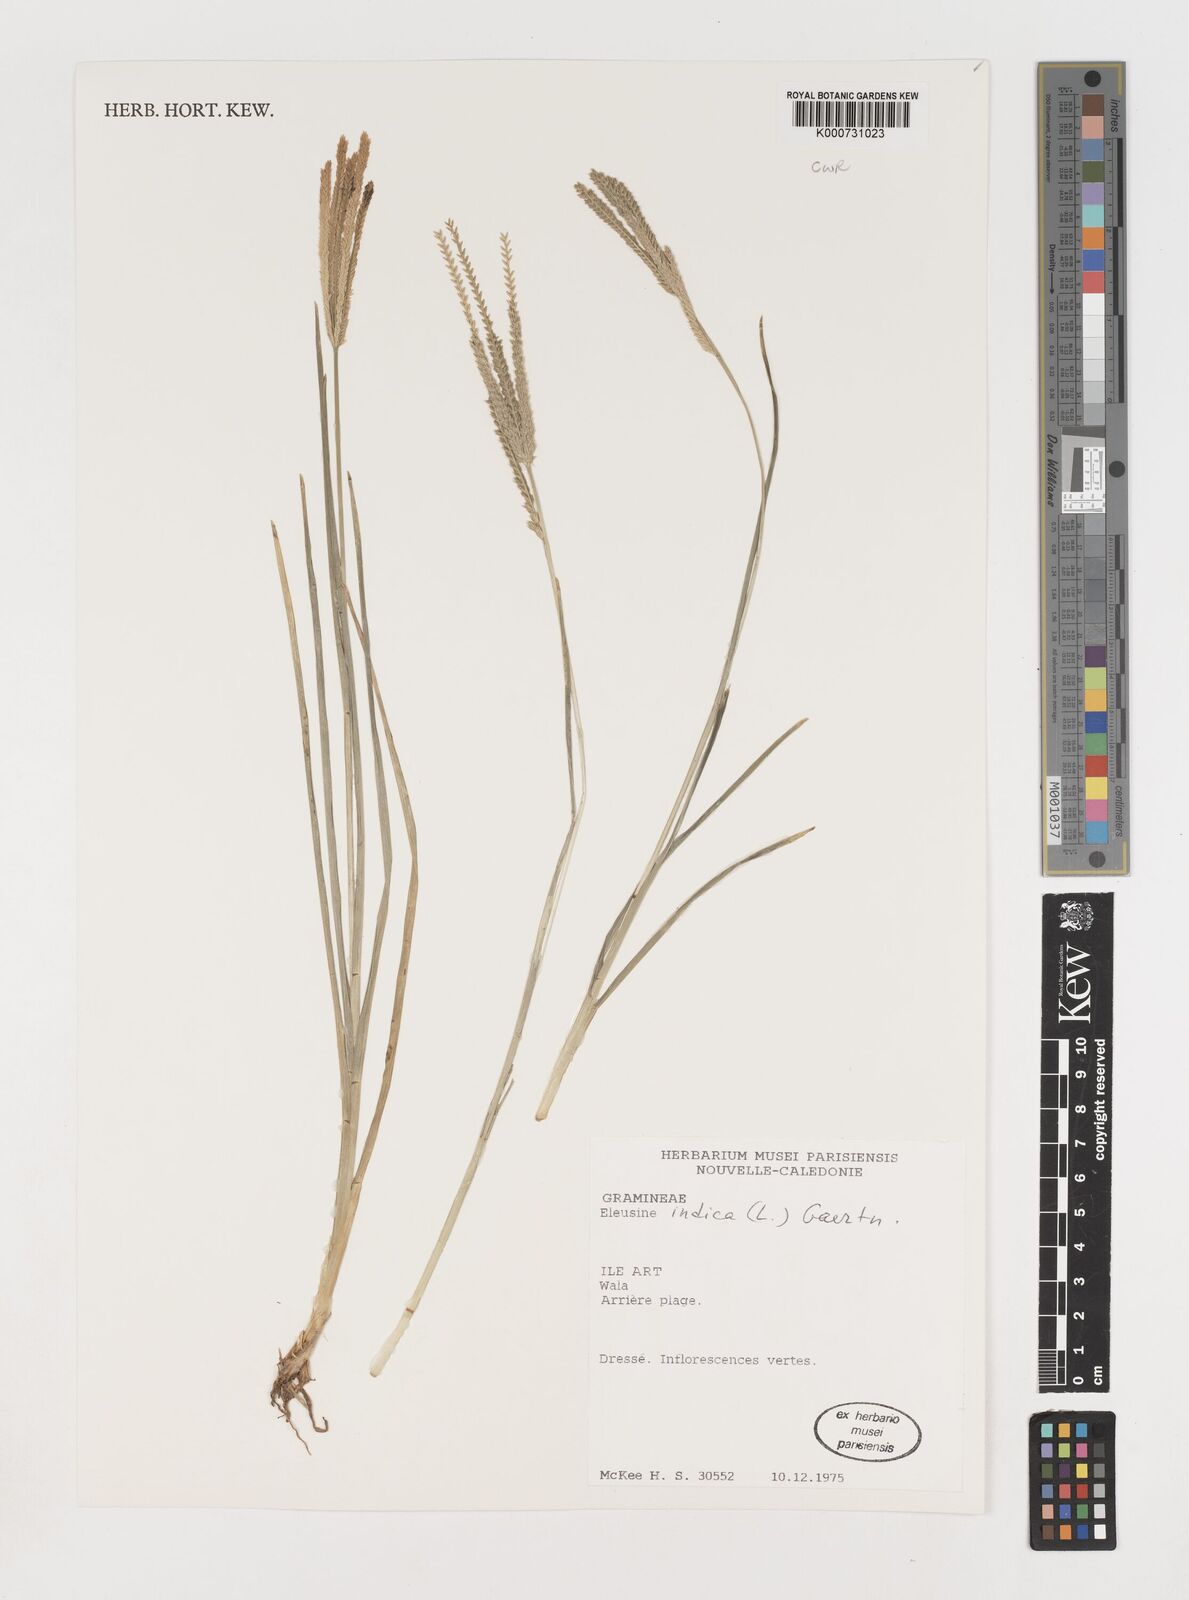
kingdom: Plantae
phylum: Tracheophyta
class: Liliopsida
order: Poales
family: Poaceae
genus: Eleusine
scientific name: Eleusine indica
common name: Yard-grass
